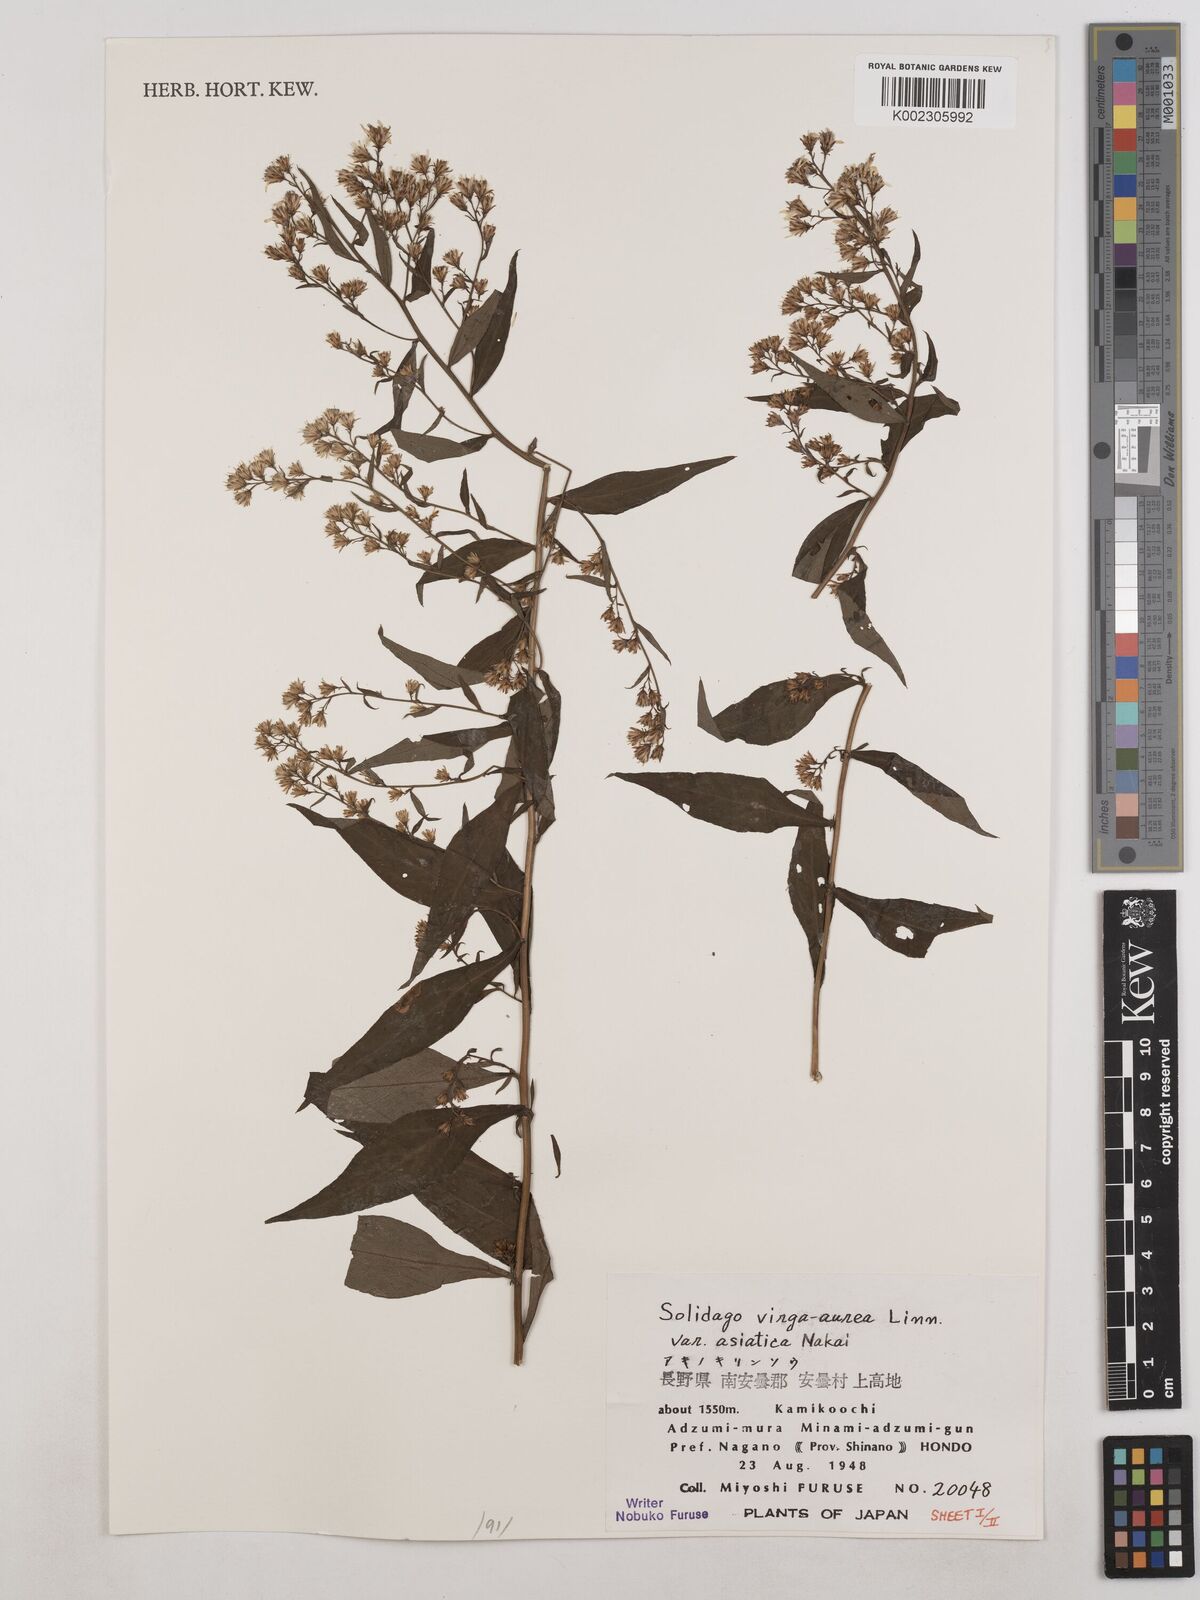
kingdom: Plantae
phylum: Tracheophyta
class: Magnoliopsida
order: Asterales
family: Asteraceae
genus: Solidago
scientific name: Solidago virgaurea
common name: Goldenrod
